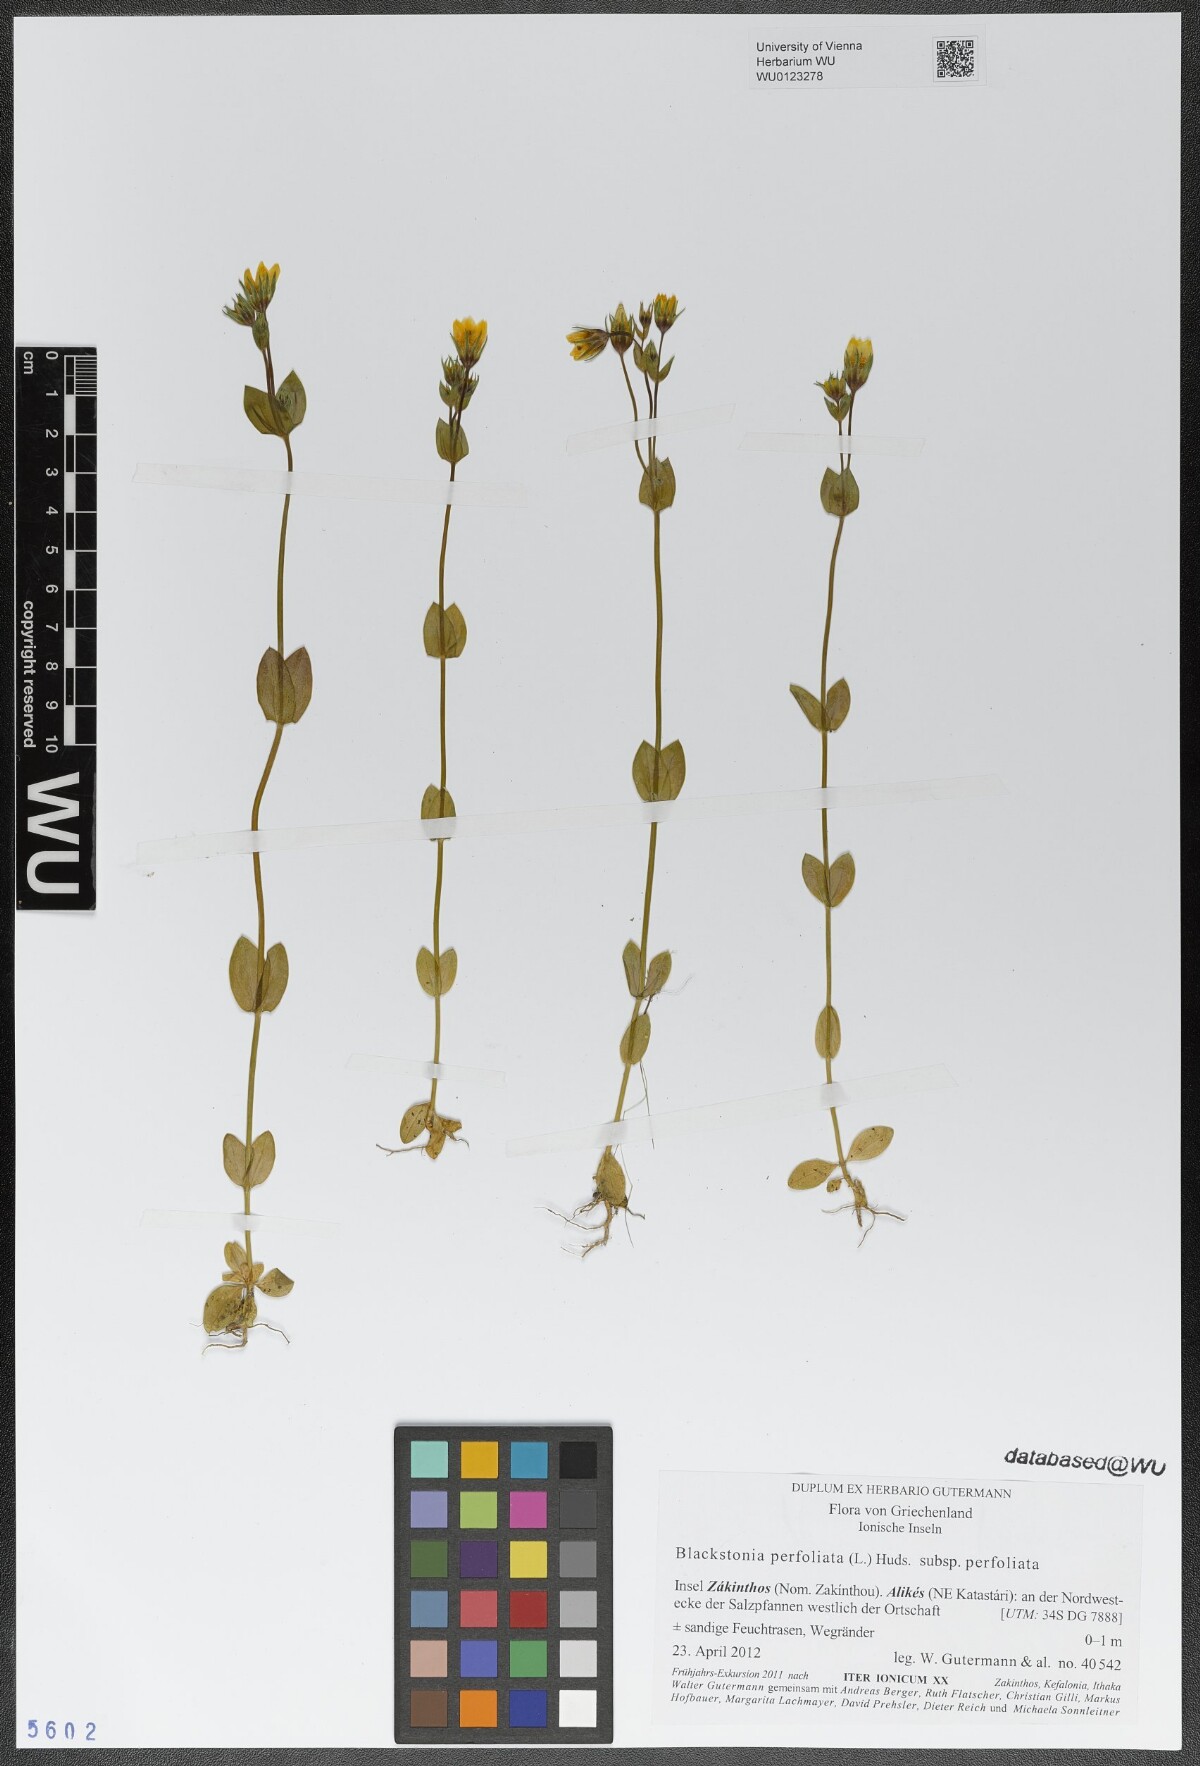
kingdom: Plantae
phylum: Tracheophyta
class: Magnoliopsida
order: Gentianales
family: Gentianaceae
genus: Blackstonia
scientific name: Blackstonia perfoliata
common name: Yellow-wort
